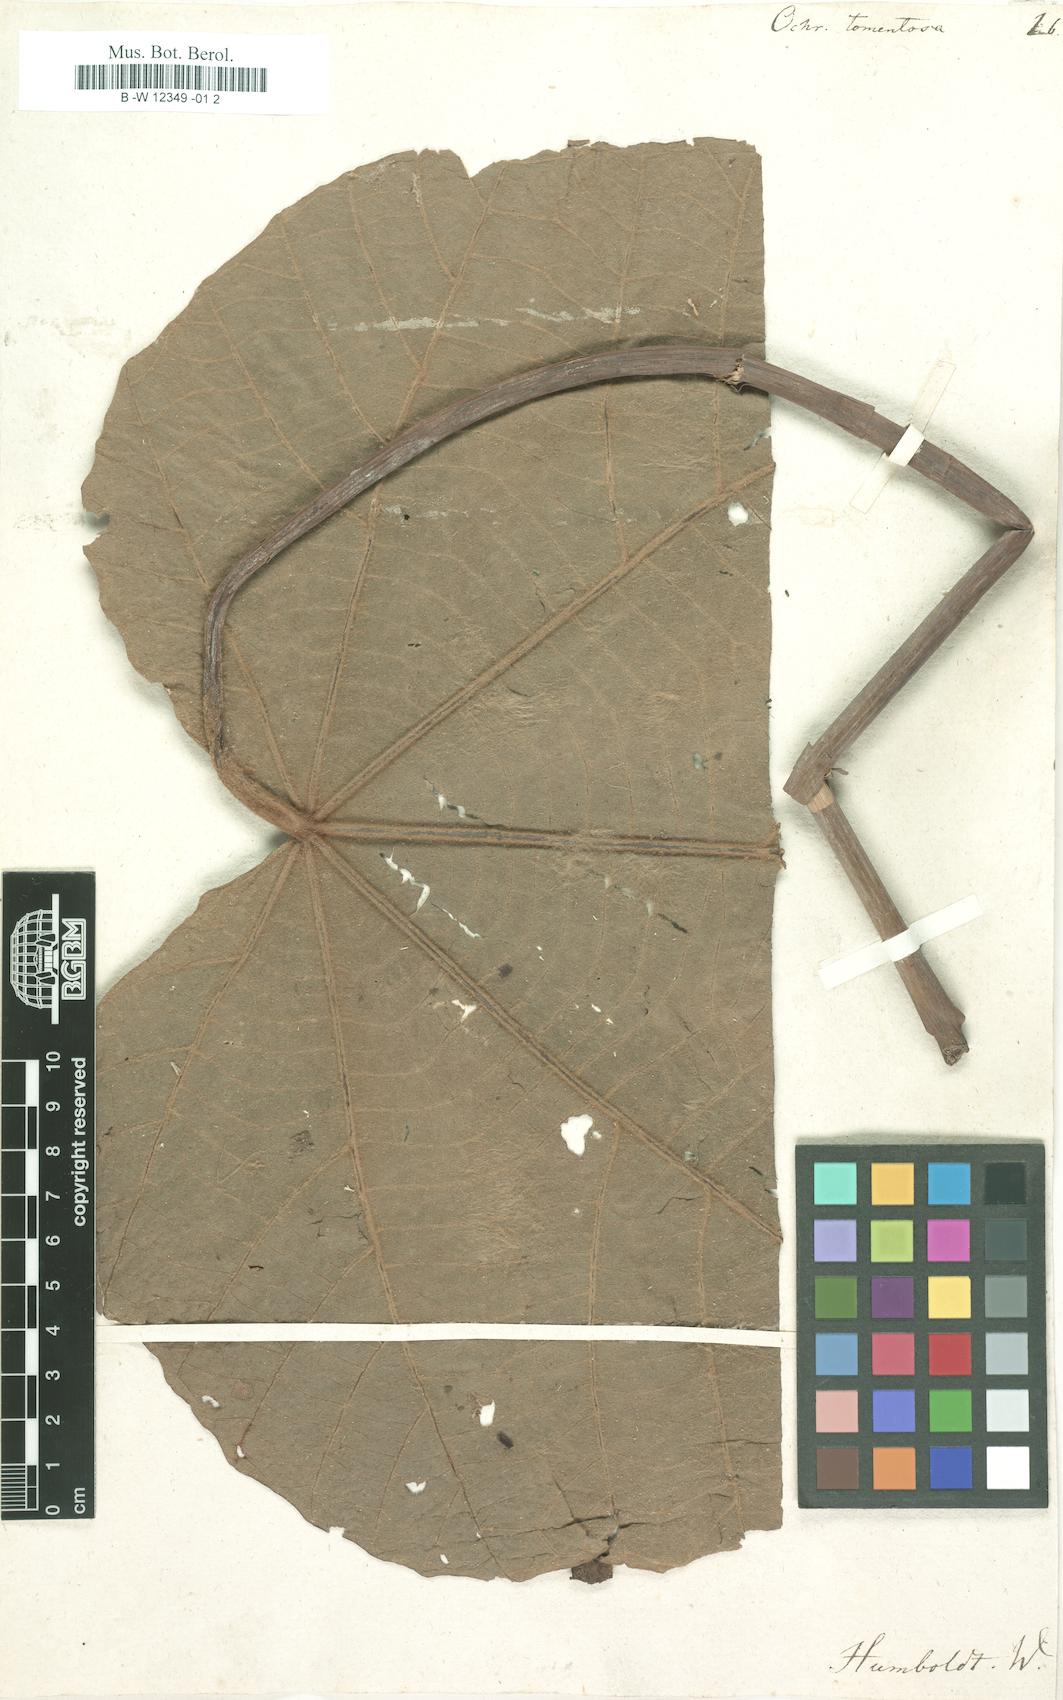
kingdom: Plantae
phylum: Tracheophyta
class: Magnoliopsida
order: Malvales
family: Malvaceae
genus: Ochroma
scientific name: Ochroma pyramidale
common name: Balsa
